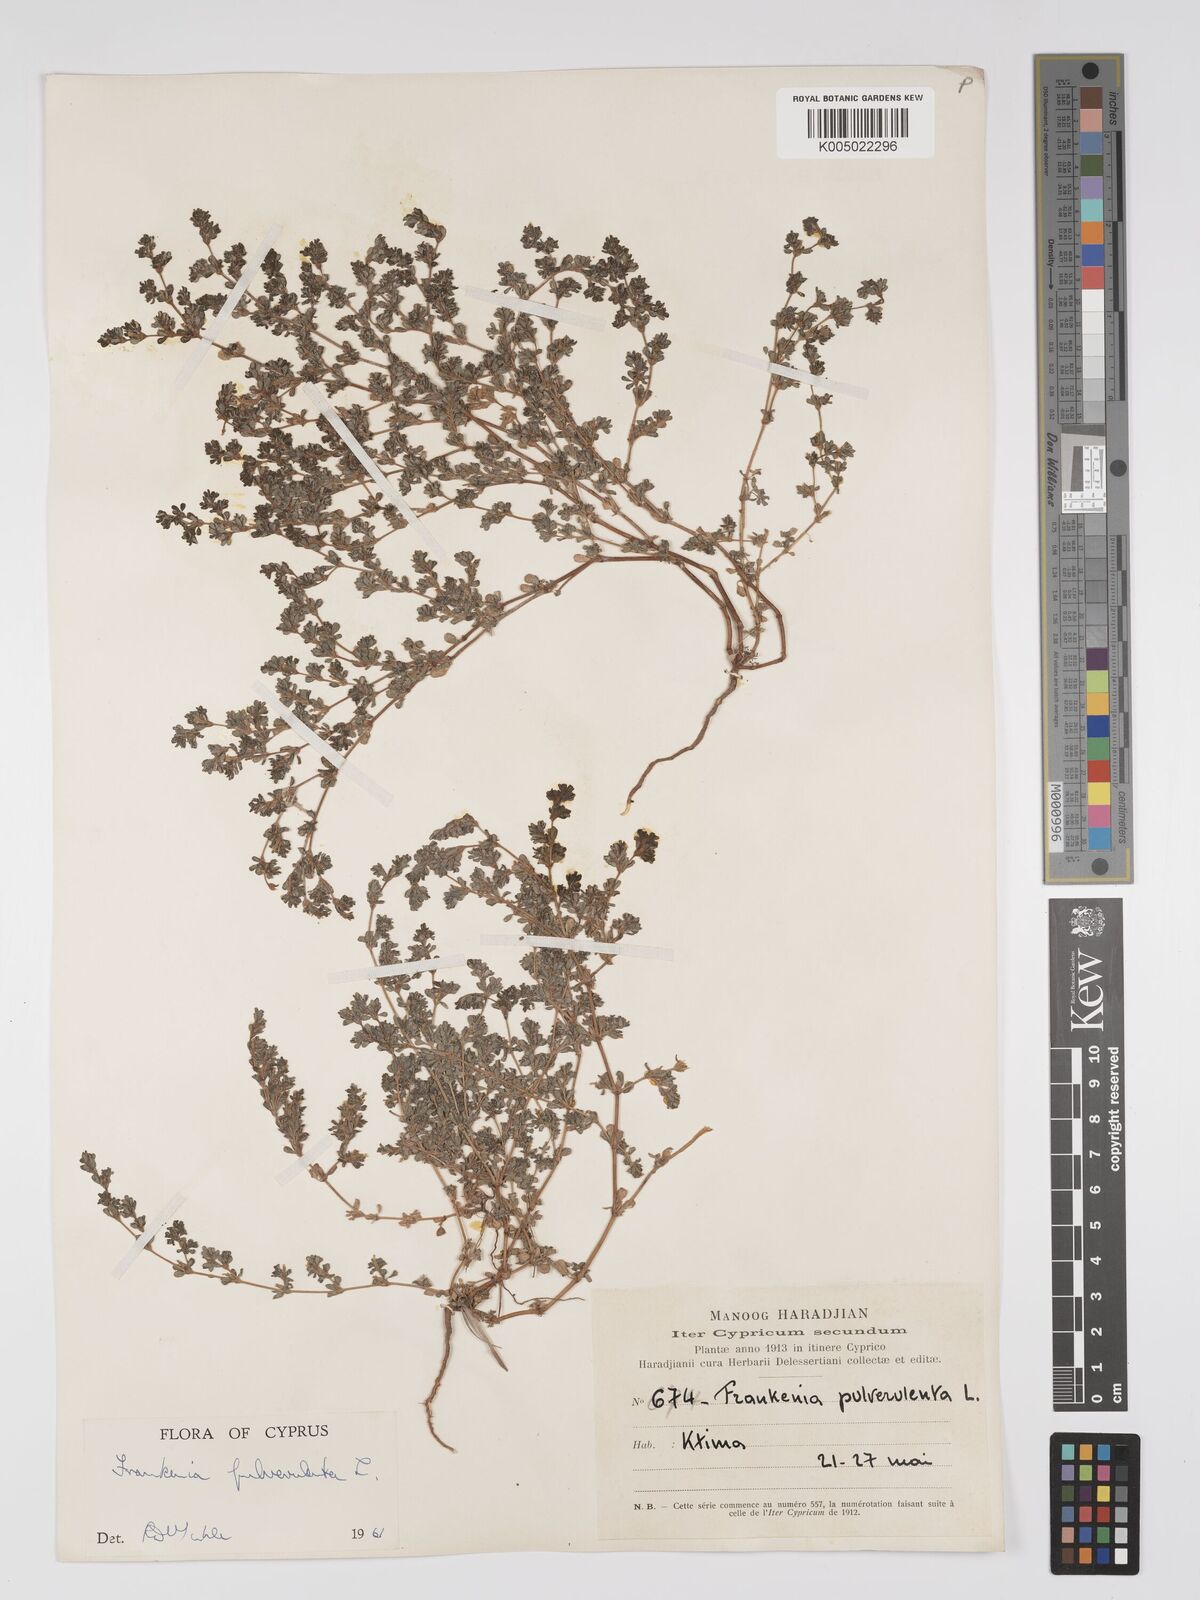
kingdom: Plantae
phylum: Tracheophyta
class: Magnoliopsida
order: Caryophyllales
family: Frankeniaceae
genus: Frankenia
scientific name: Frankenia pulverulenta
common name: European seaheath
